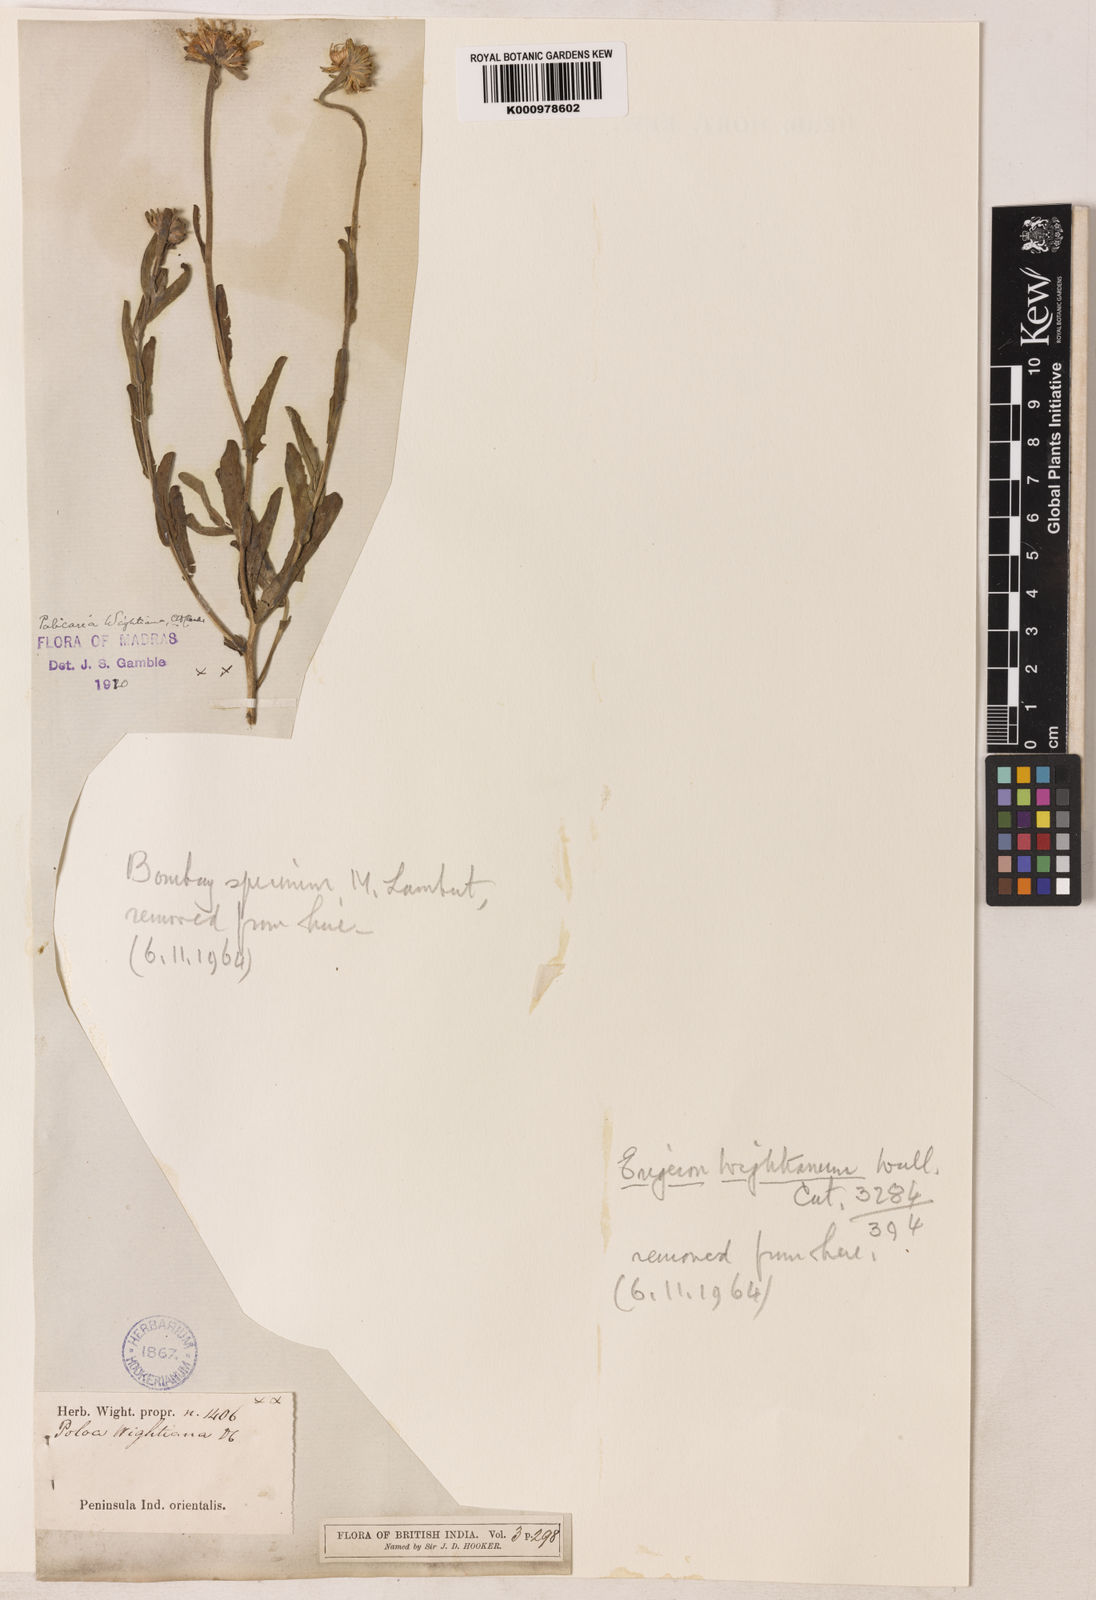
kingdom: Plantae
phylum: Tracheophyta
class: Magnoliopsida
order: Asterales
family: Asteraceae
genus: Pulicaria
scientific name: Pulicaria wightiana
